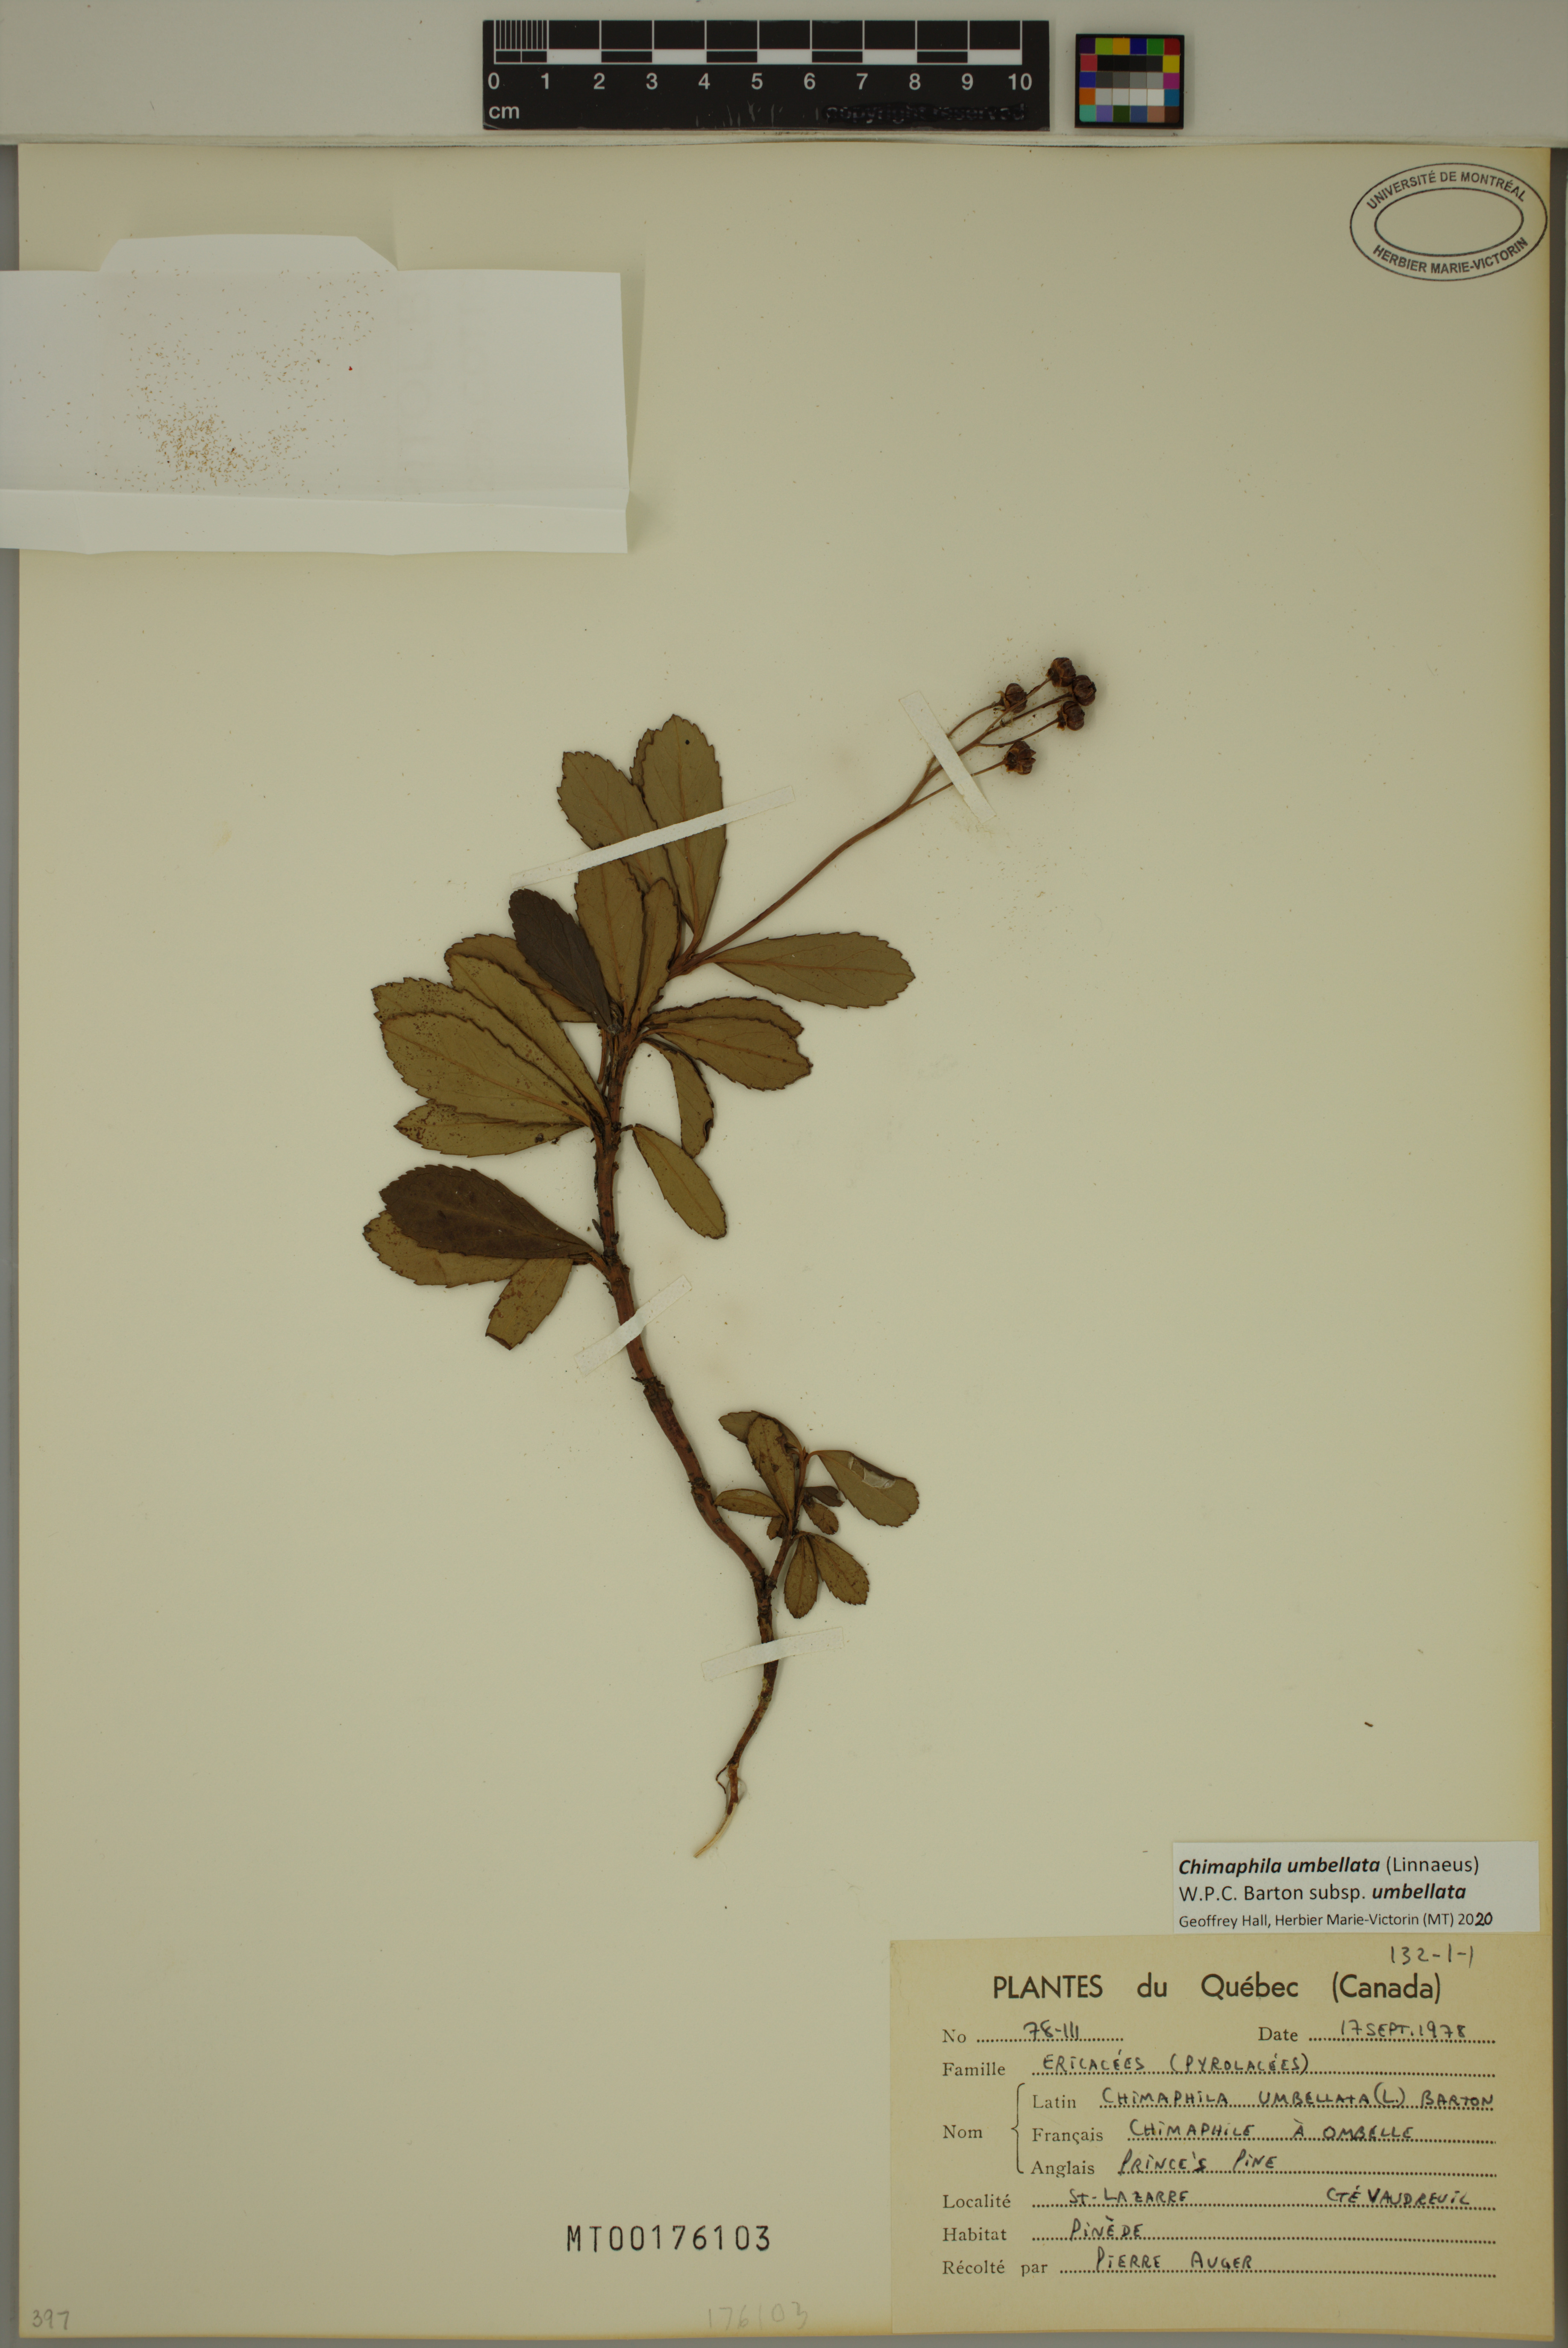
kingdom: Plantae
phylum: Tracheophyta
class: Magnoliopsida
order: Ericales
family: Ericaceae
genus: Chimaphila
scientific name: Chimaphila umbellata
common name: Pipsissewa
